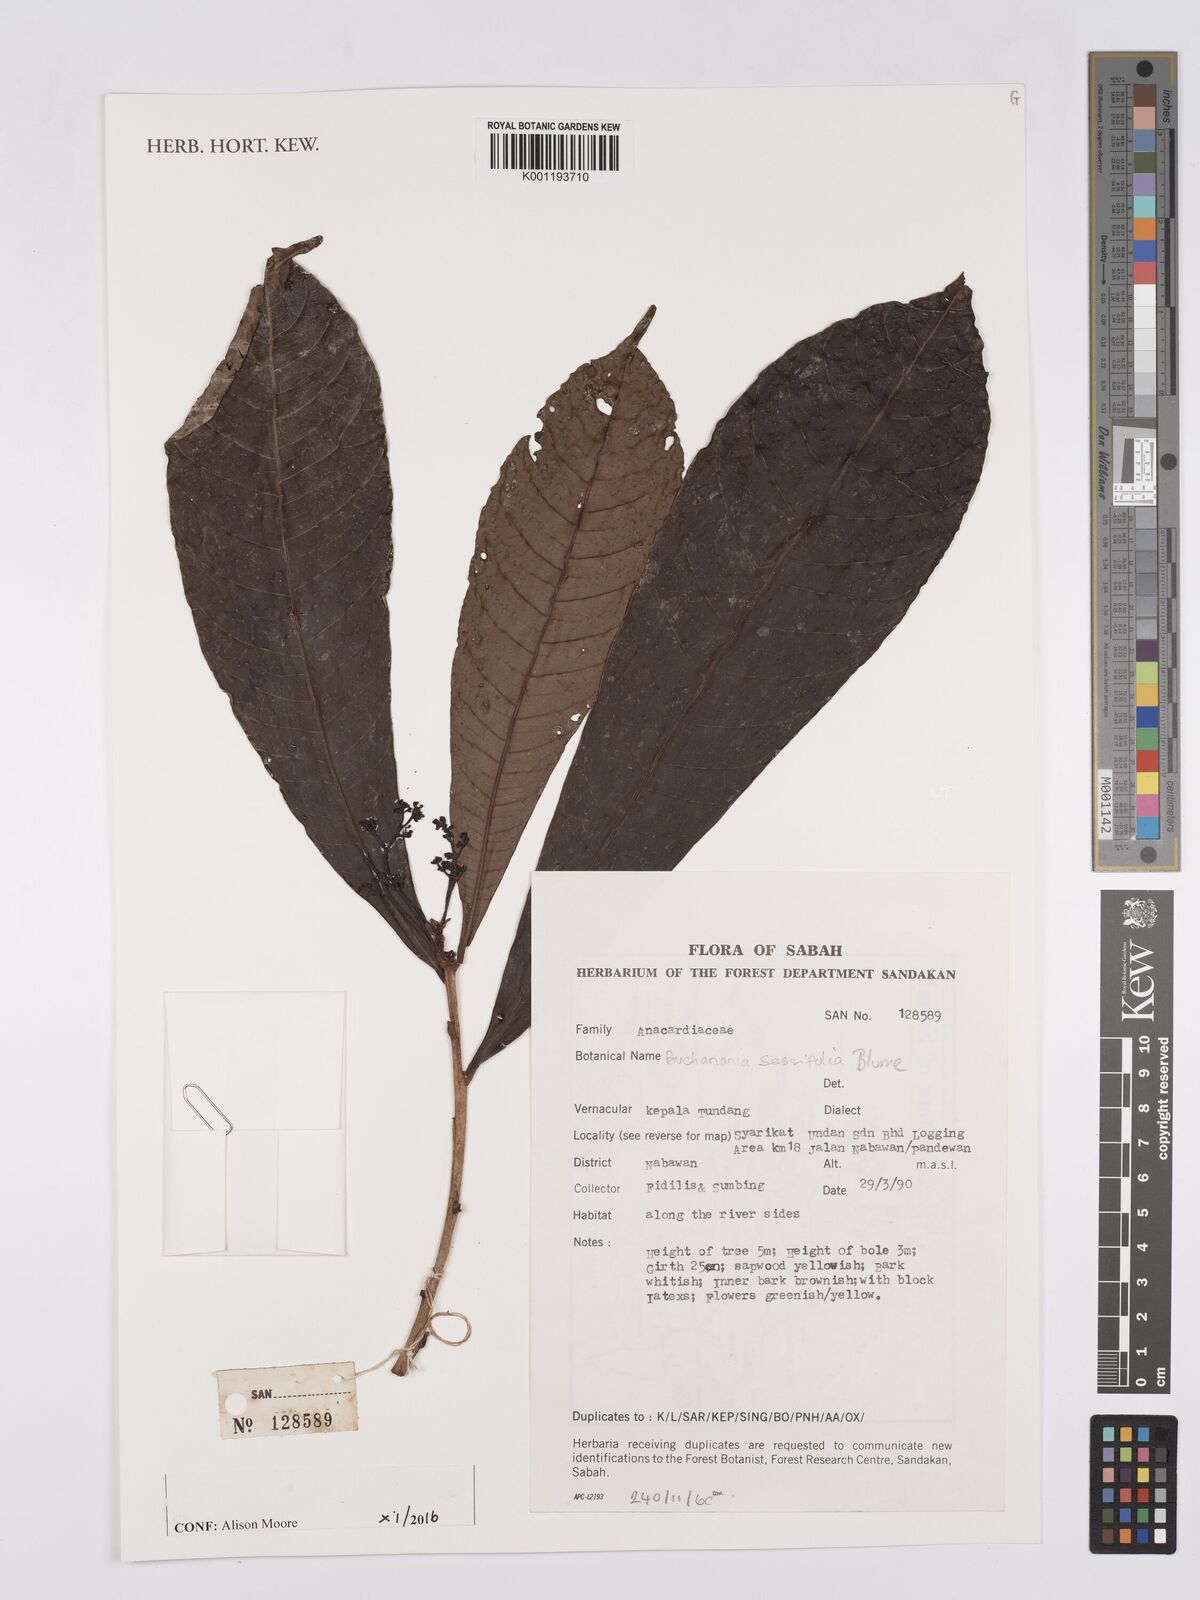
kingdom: Plantae
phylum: Tracheophyta
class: Magnoliopsida
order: Sapindales
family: Anacardiaceae
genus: Buchanania
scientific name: Buchanania sessifolia
